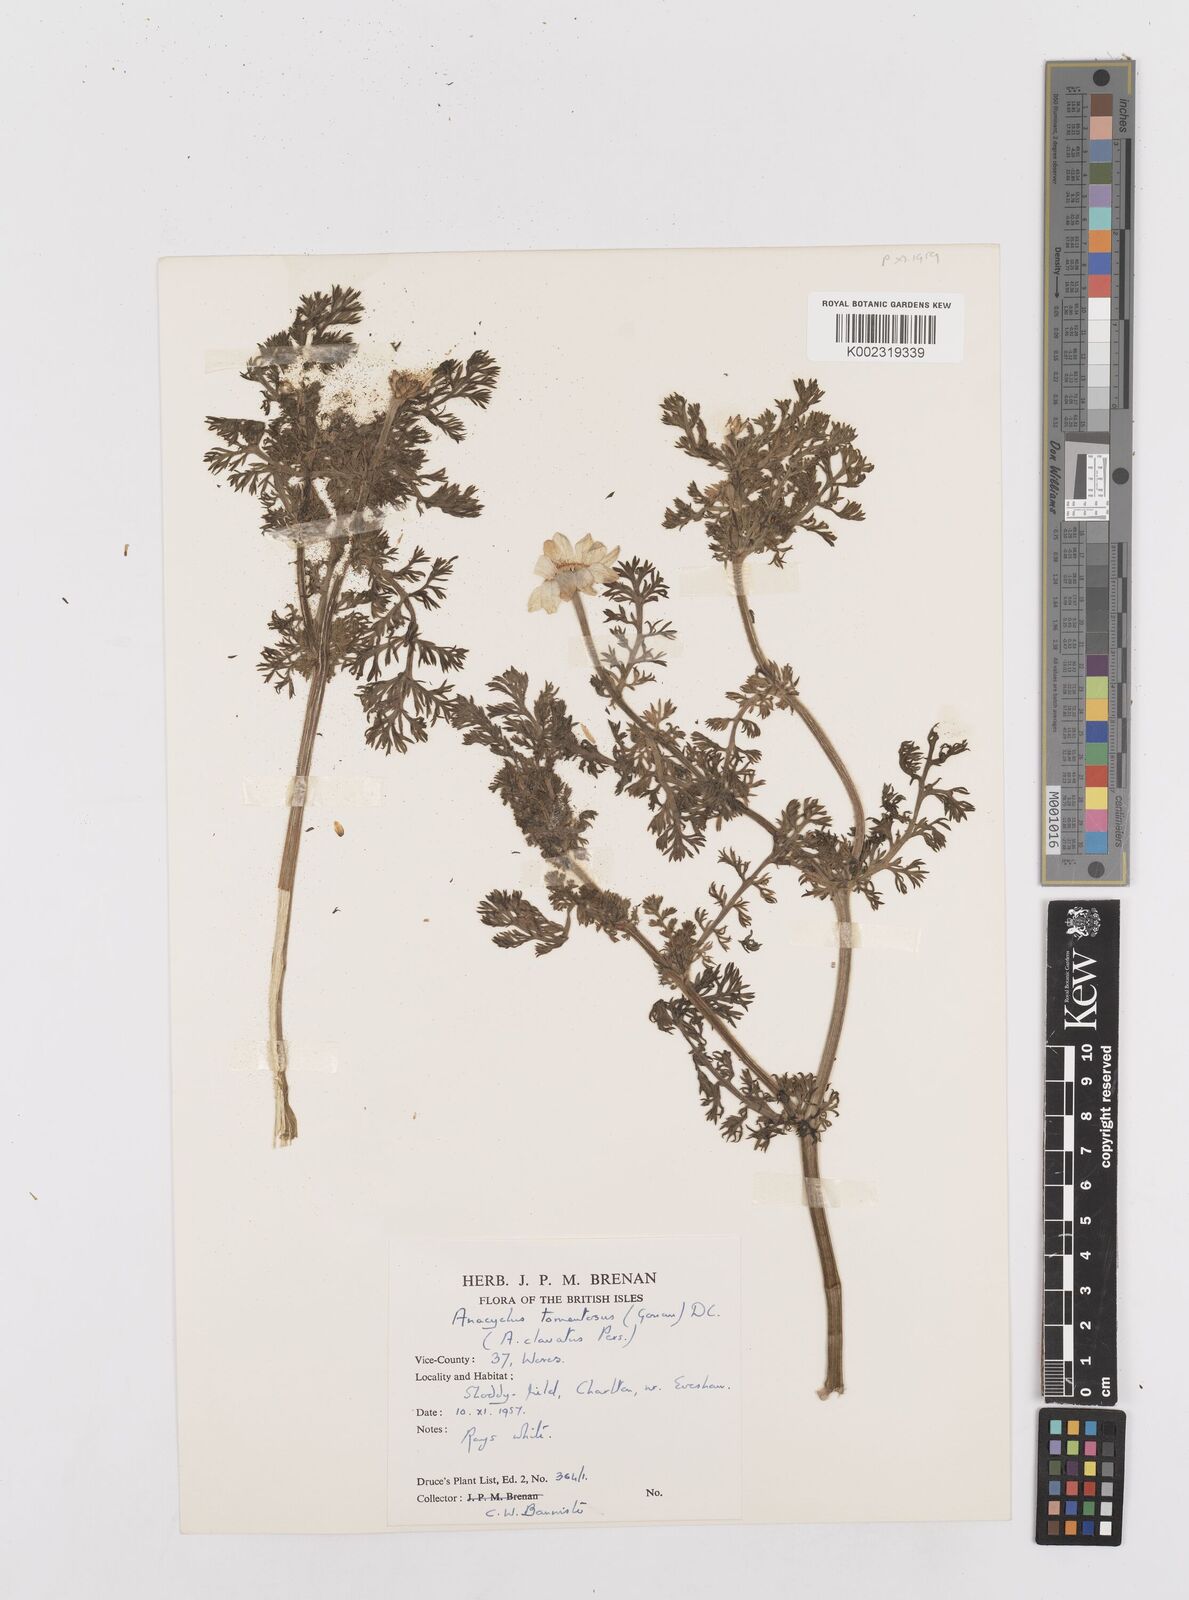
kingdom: Plantae
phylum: Tracheophyta
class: Magnoliopsida
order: Asterales
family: Asteraceae
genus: Anacyclus
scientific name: Anacyclus clavatus
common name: Whitebuttons
